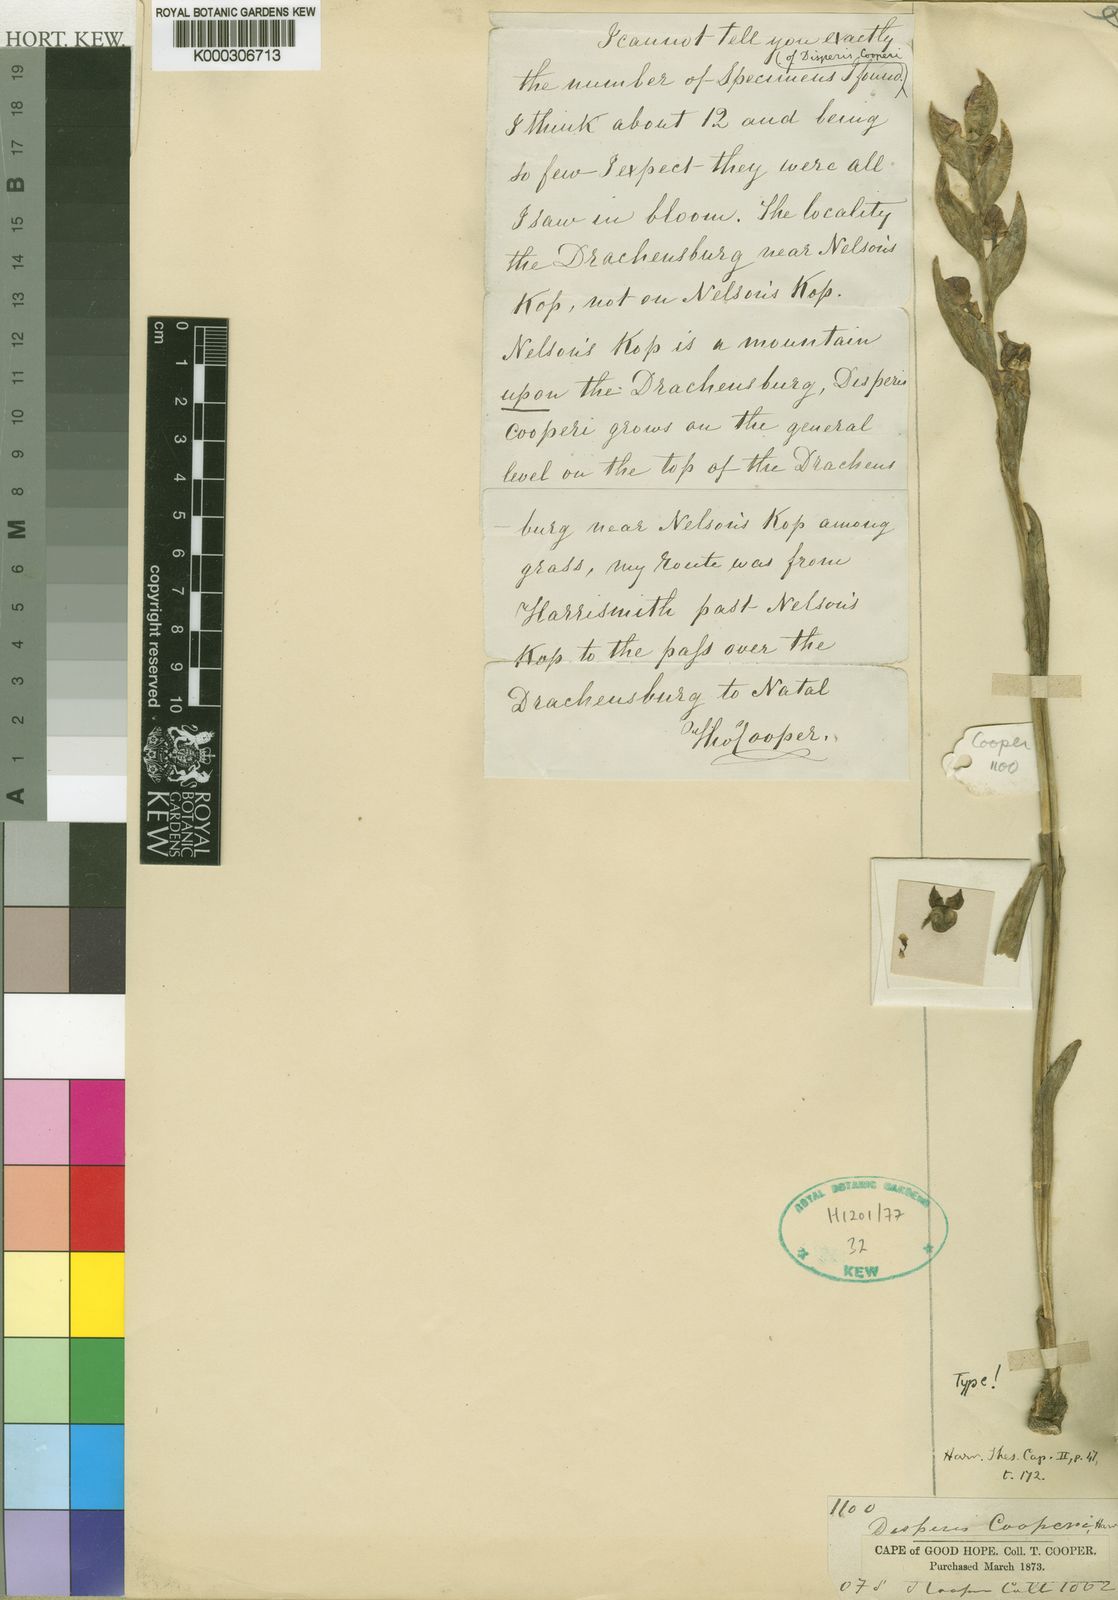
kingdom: Plantae
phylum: Tracheophyta
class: Liliopsida
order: Asparagales
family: Orchidaceae
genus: Disperis
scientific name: Disperis cooperi
